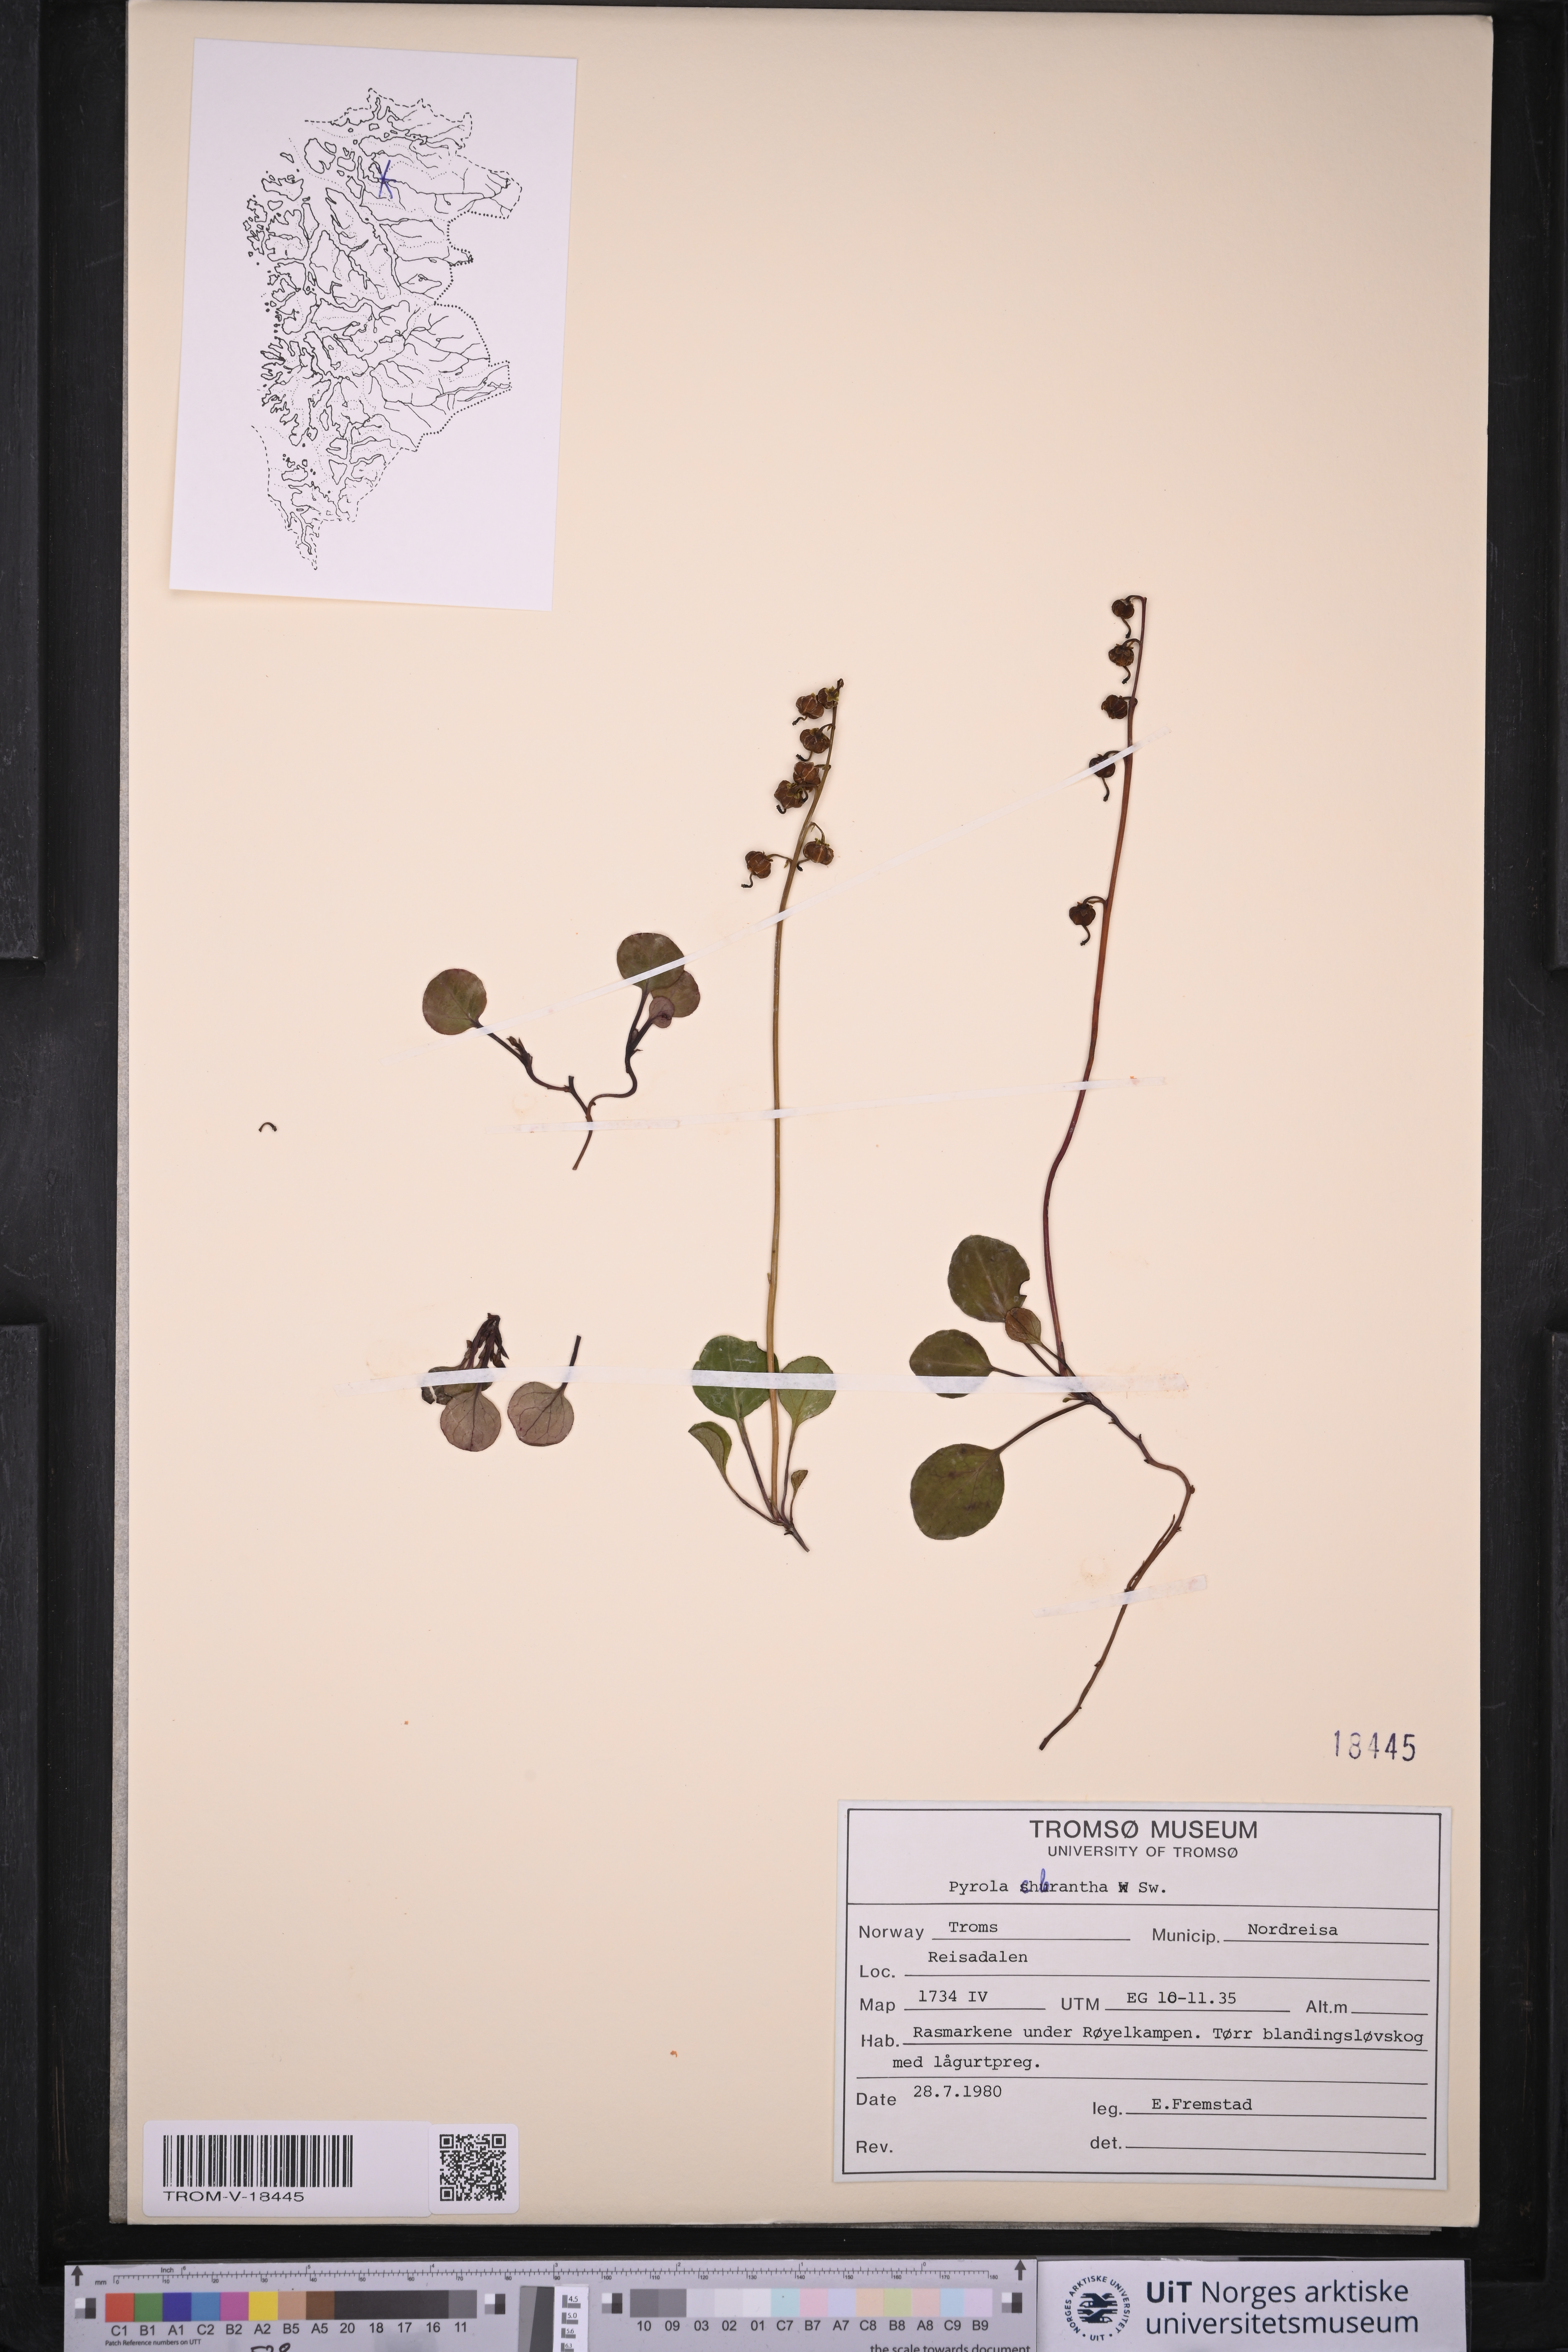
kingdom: Plantae
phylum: Tracheophyta
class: Magnoliopsida
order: Ericales
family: Ericaceae
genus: Pyrola
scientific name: Pyrola chlorantha
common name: Green wintergreen
